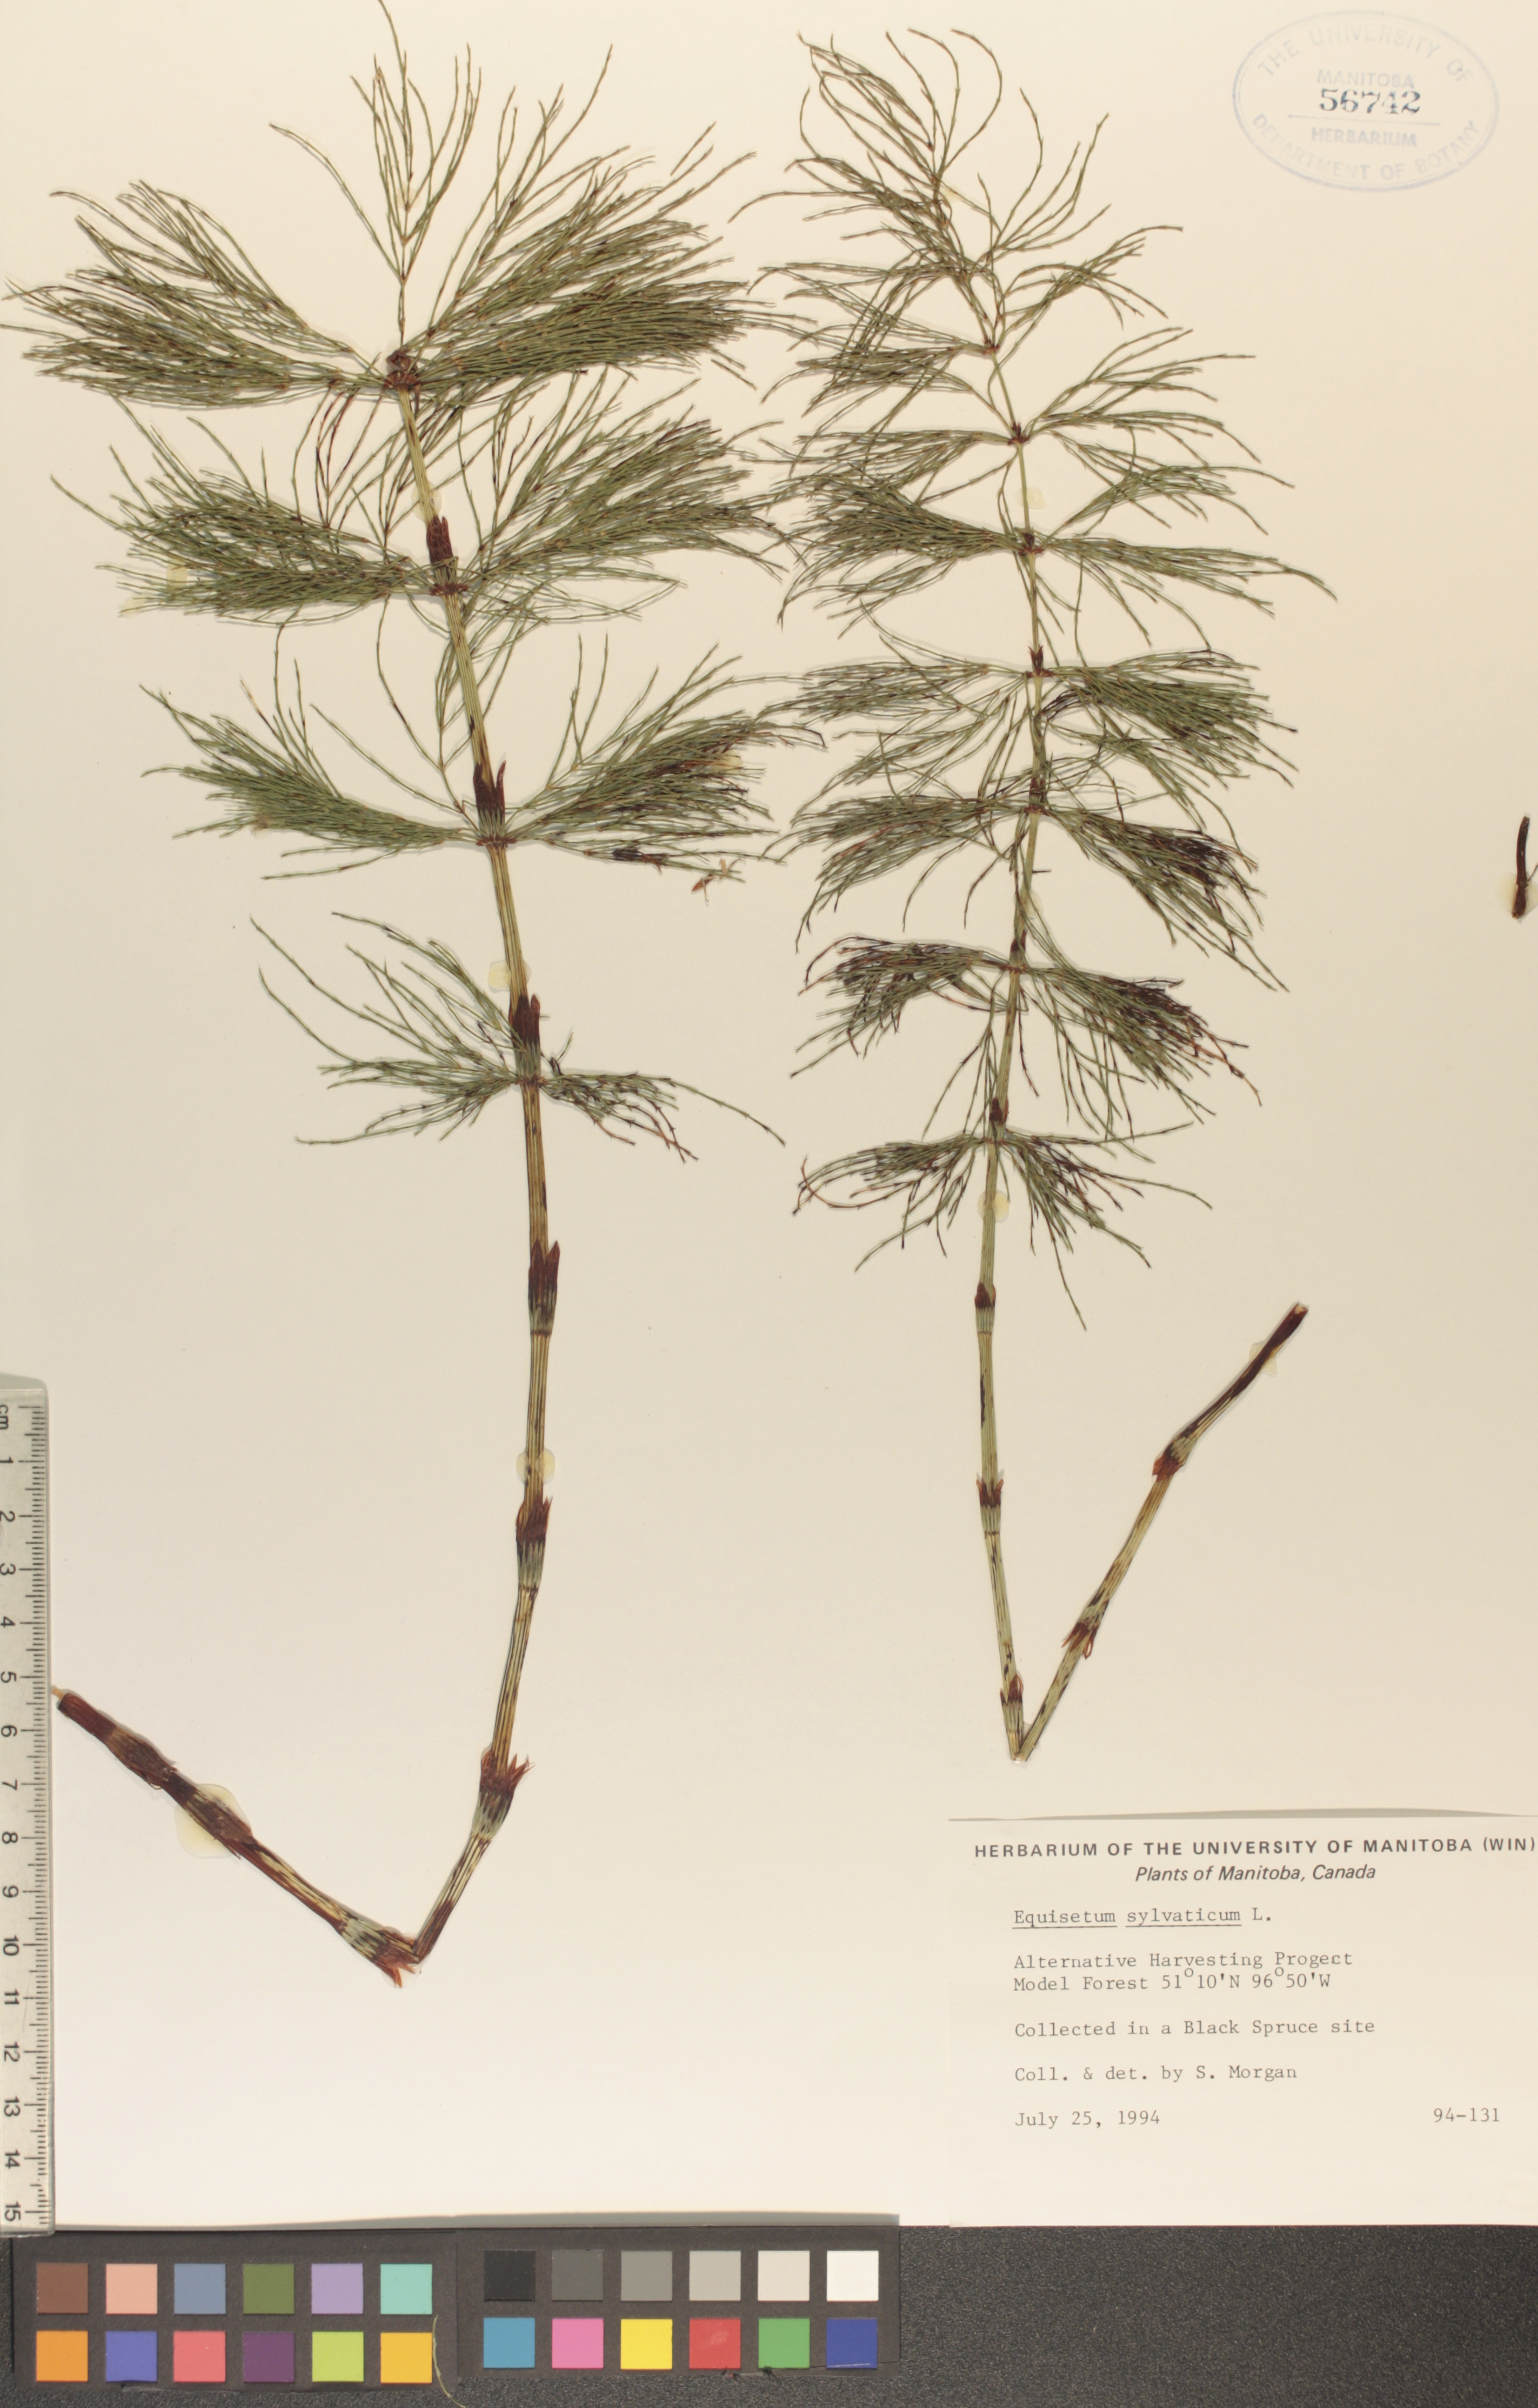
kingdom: Plantae
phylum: Tracheophyta
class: Polypodiopsida
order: Equisetales
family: Equisetaceae
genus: Equisetum
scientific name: Equisetum sylvaticum
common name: Wood horsetail
